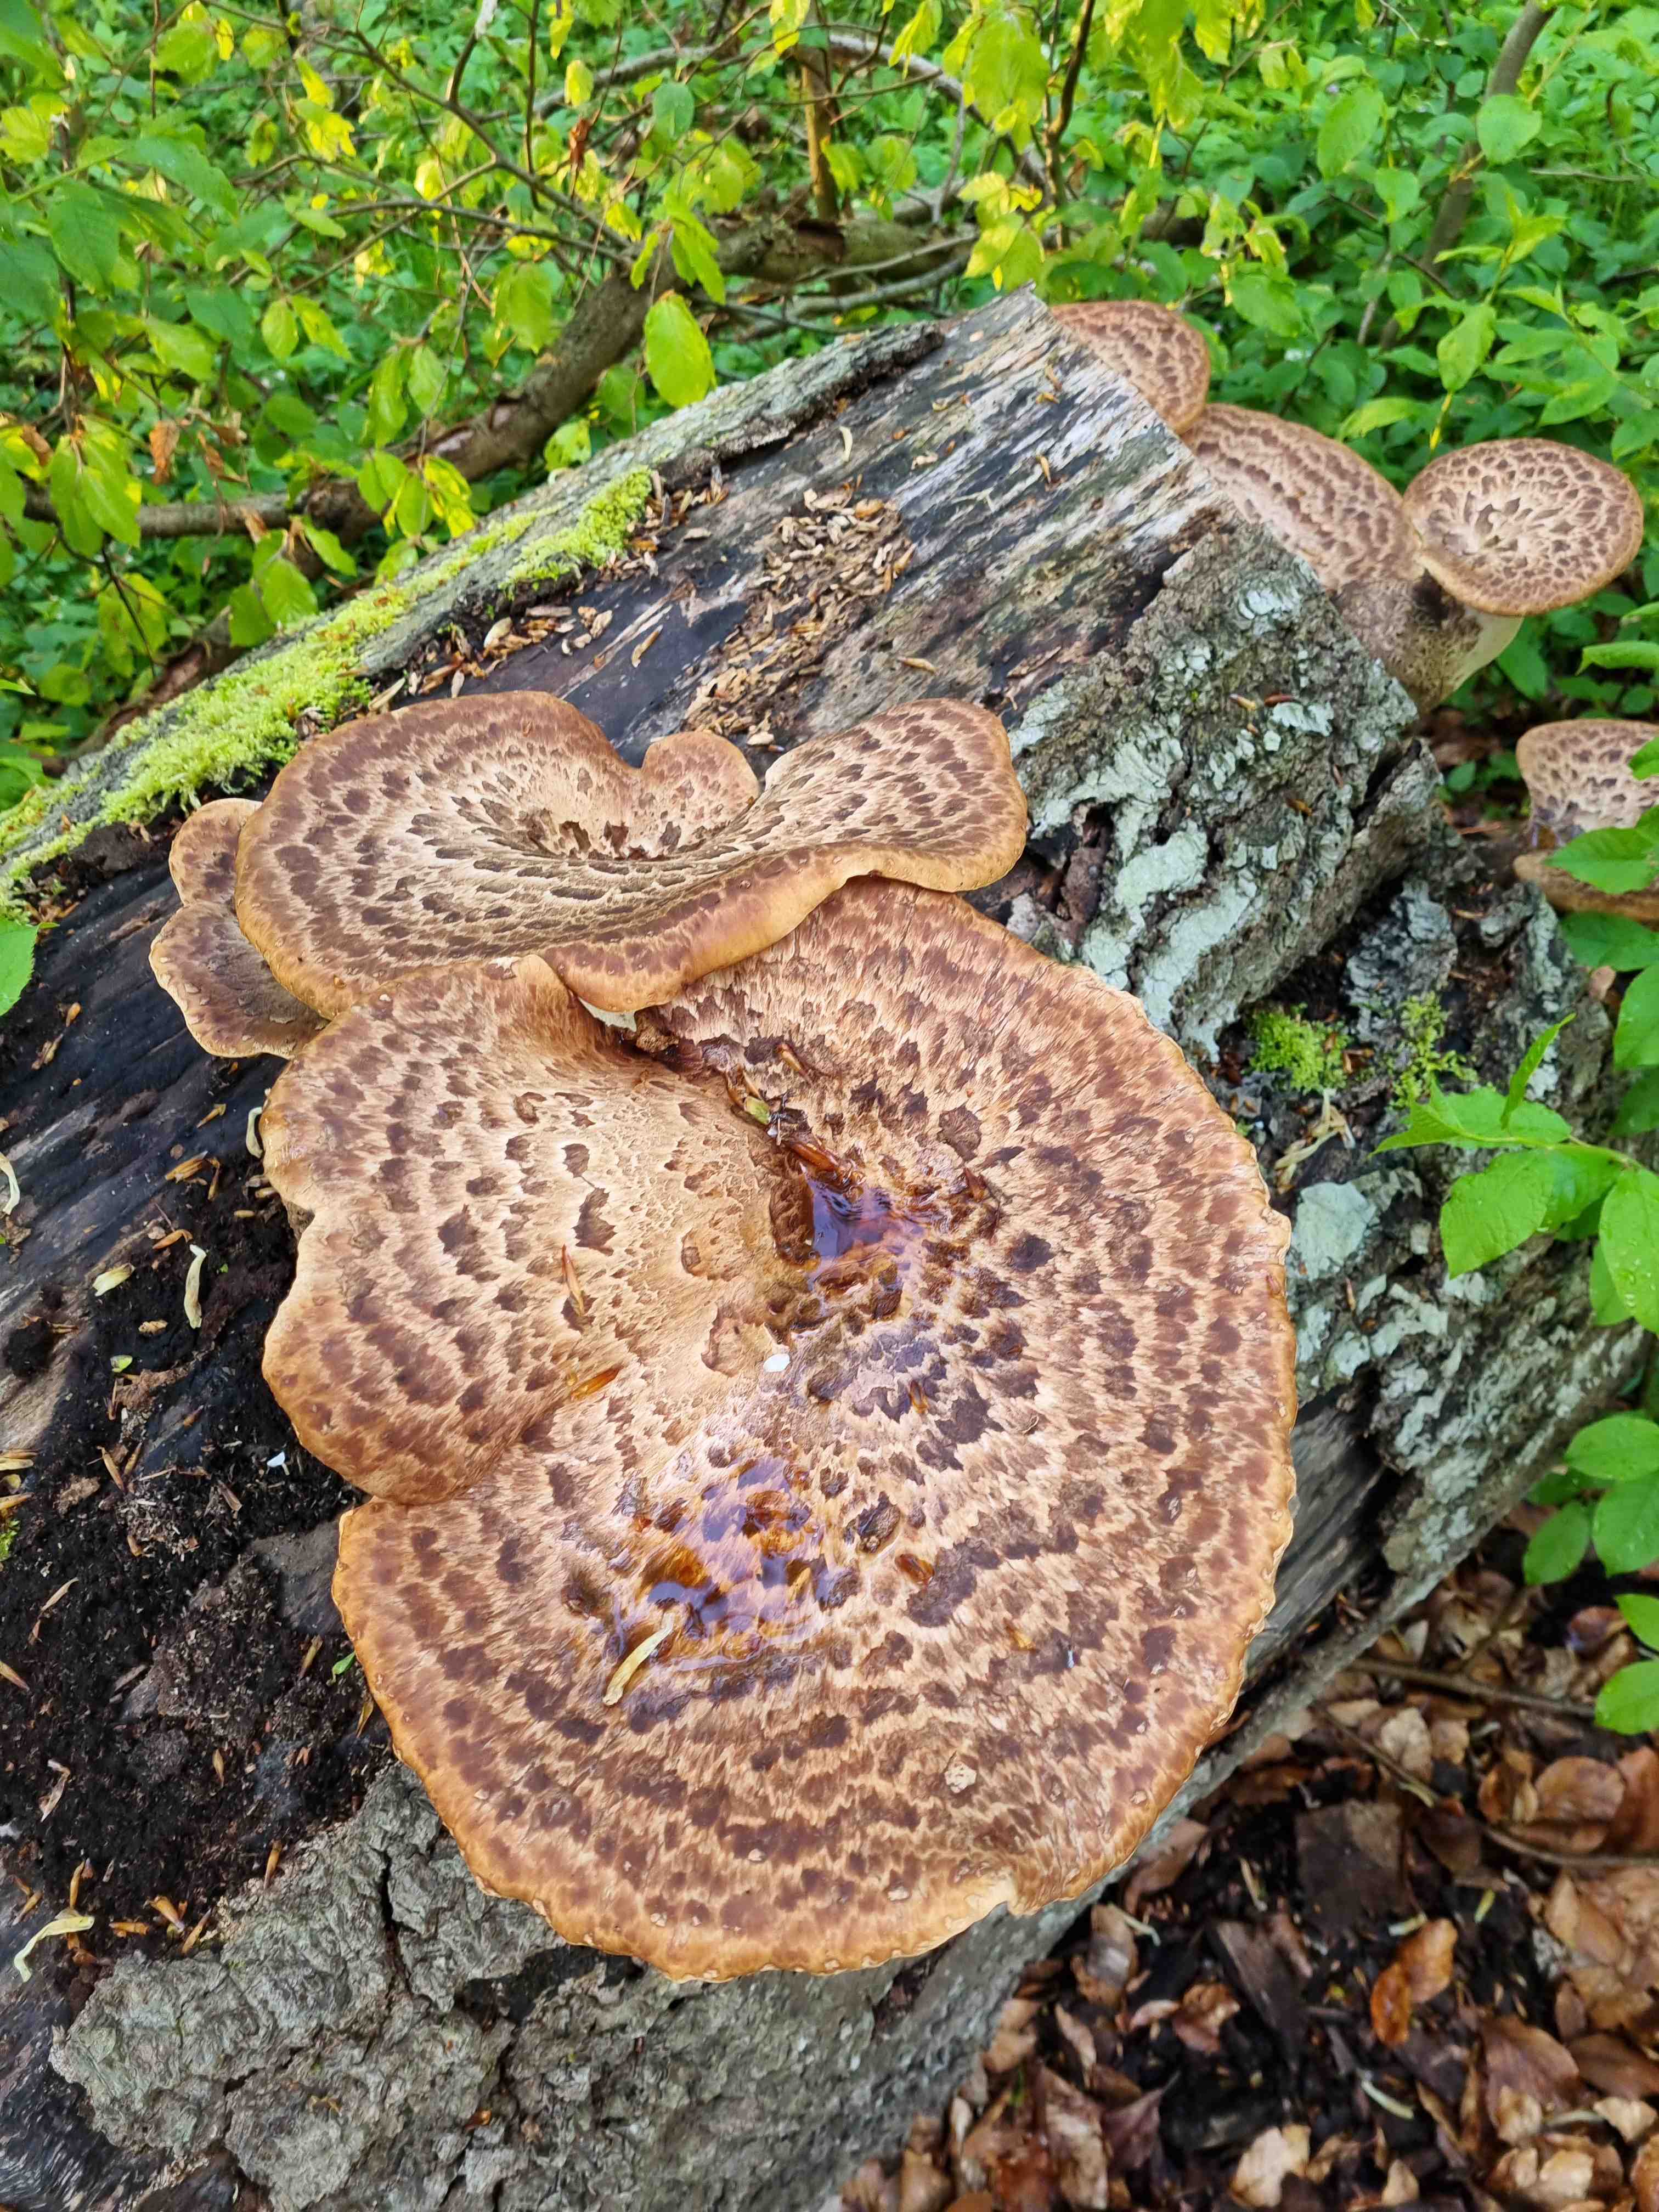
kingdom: Fungi
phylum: Basidiomycota
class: Agaricomycetes
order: Polyporales
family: Polyporaceae
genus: Cerioporus
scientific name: Cerioporus squamosus
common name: skællet stilkporesvamp
